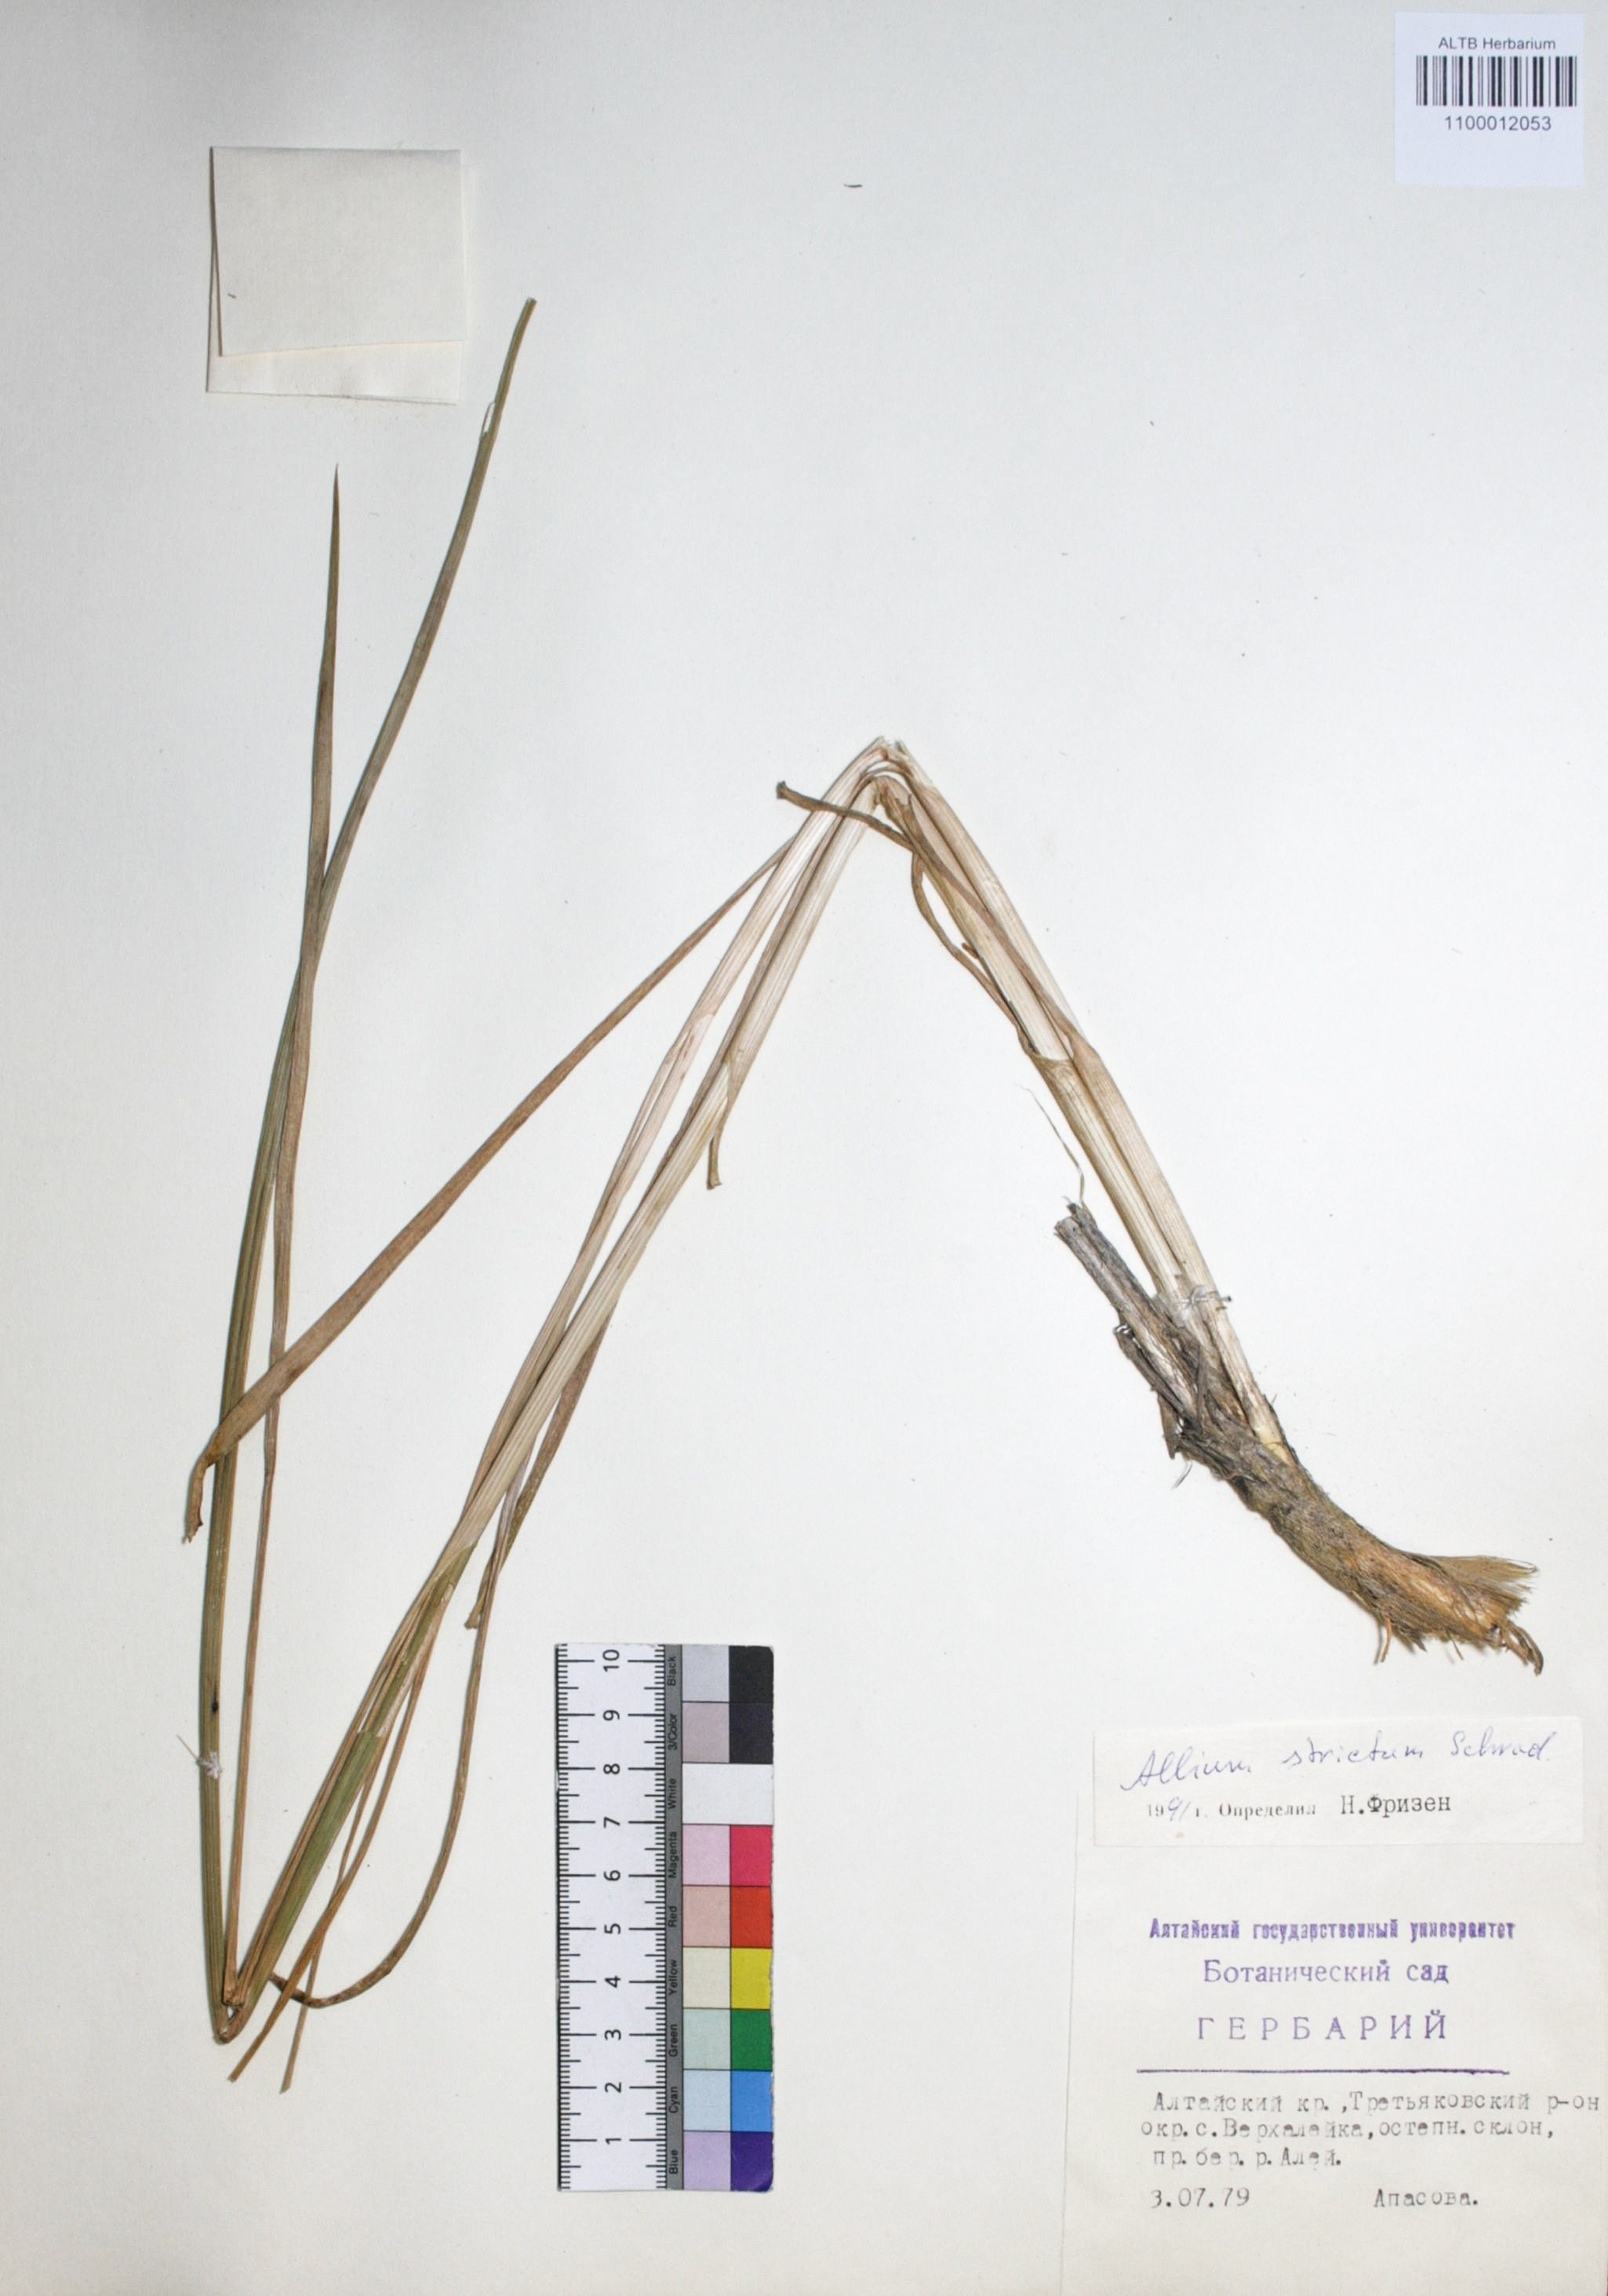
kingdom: Plantae
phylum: Tracheophyta
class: Liliopsida
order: Asparagales
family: Amaryllidaceae
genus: Allium
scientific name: Allium strictum
